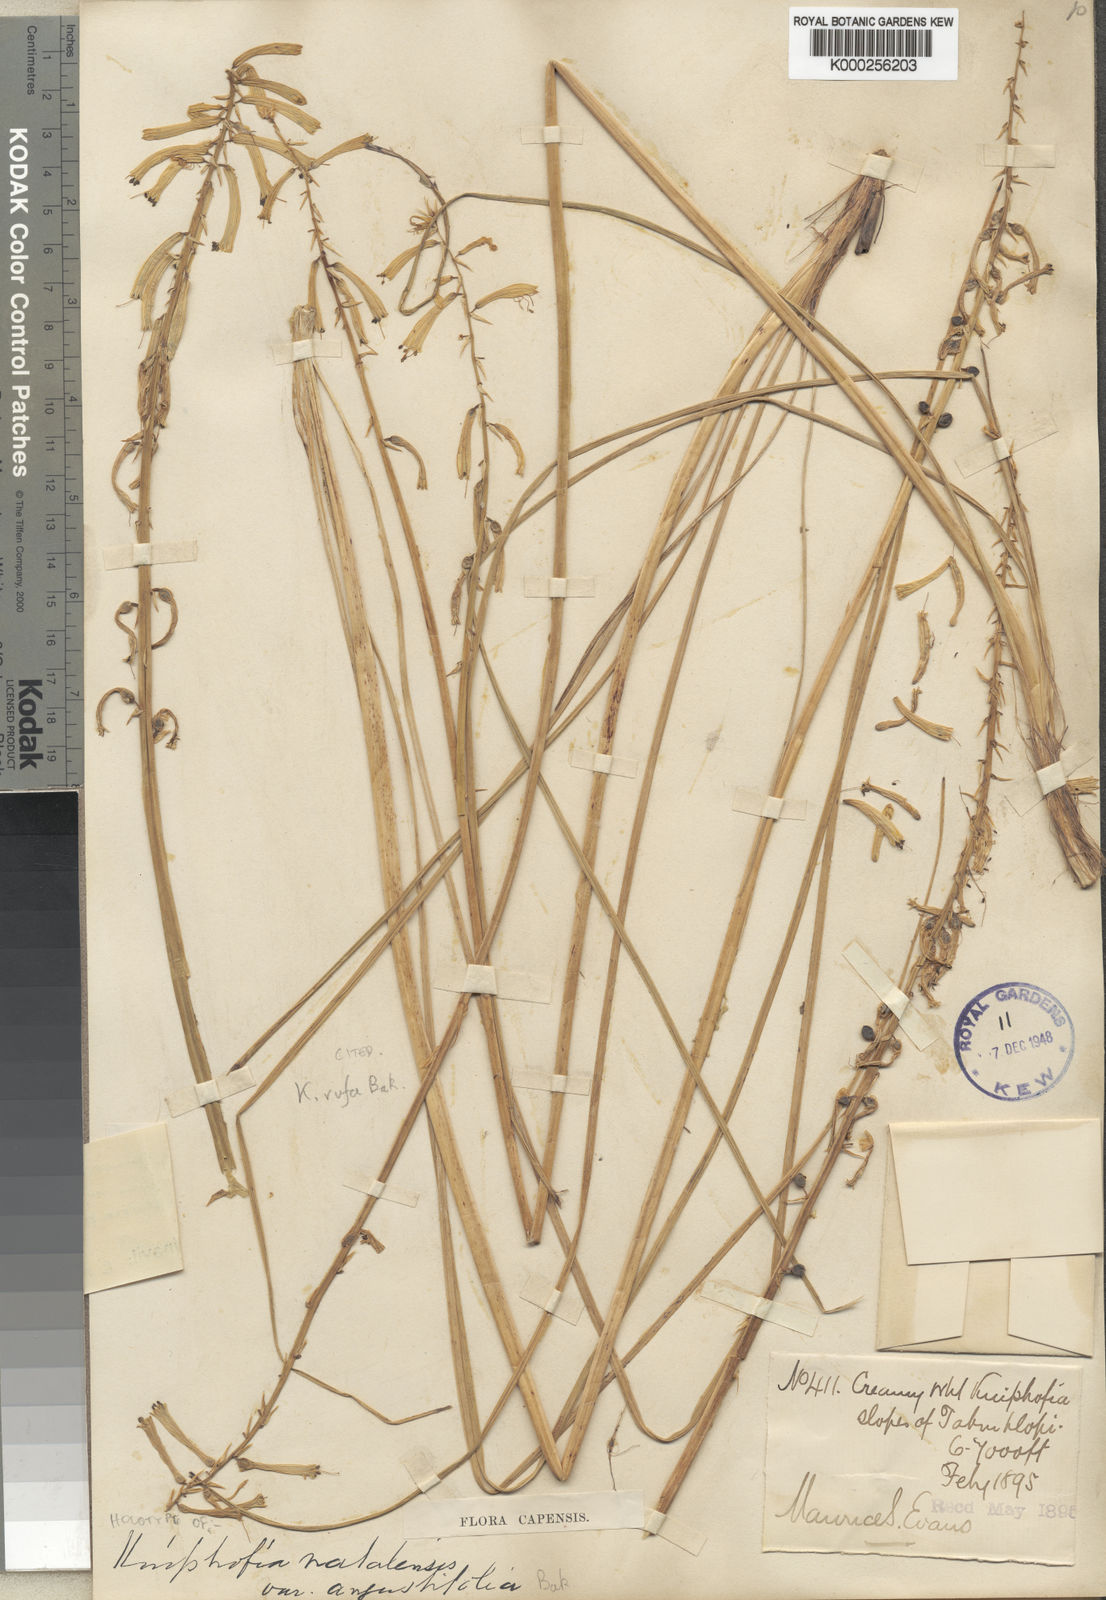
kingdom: Plantae
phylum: Tracheophyta
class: Liliopsida
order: Asparagales
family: Asphodelaceae
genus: Kniphofia
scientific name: Kniphofia rufa
